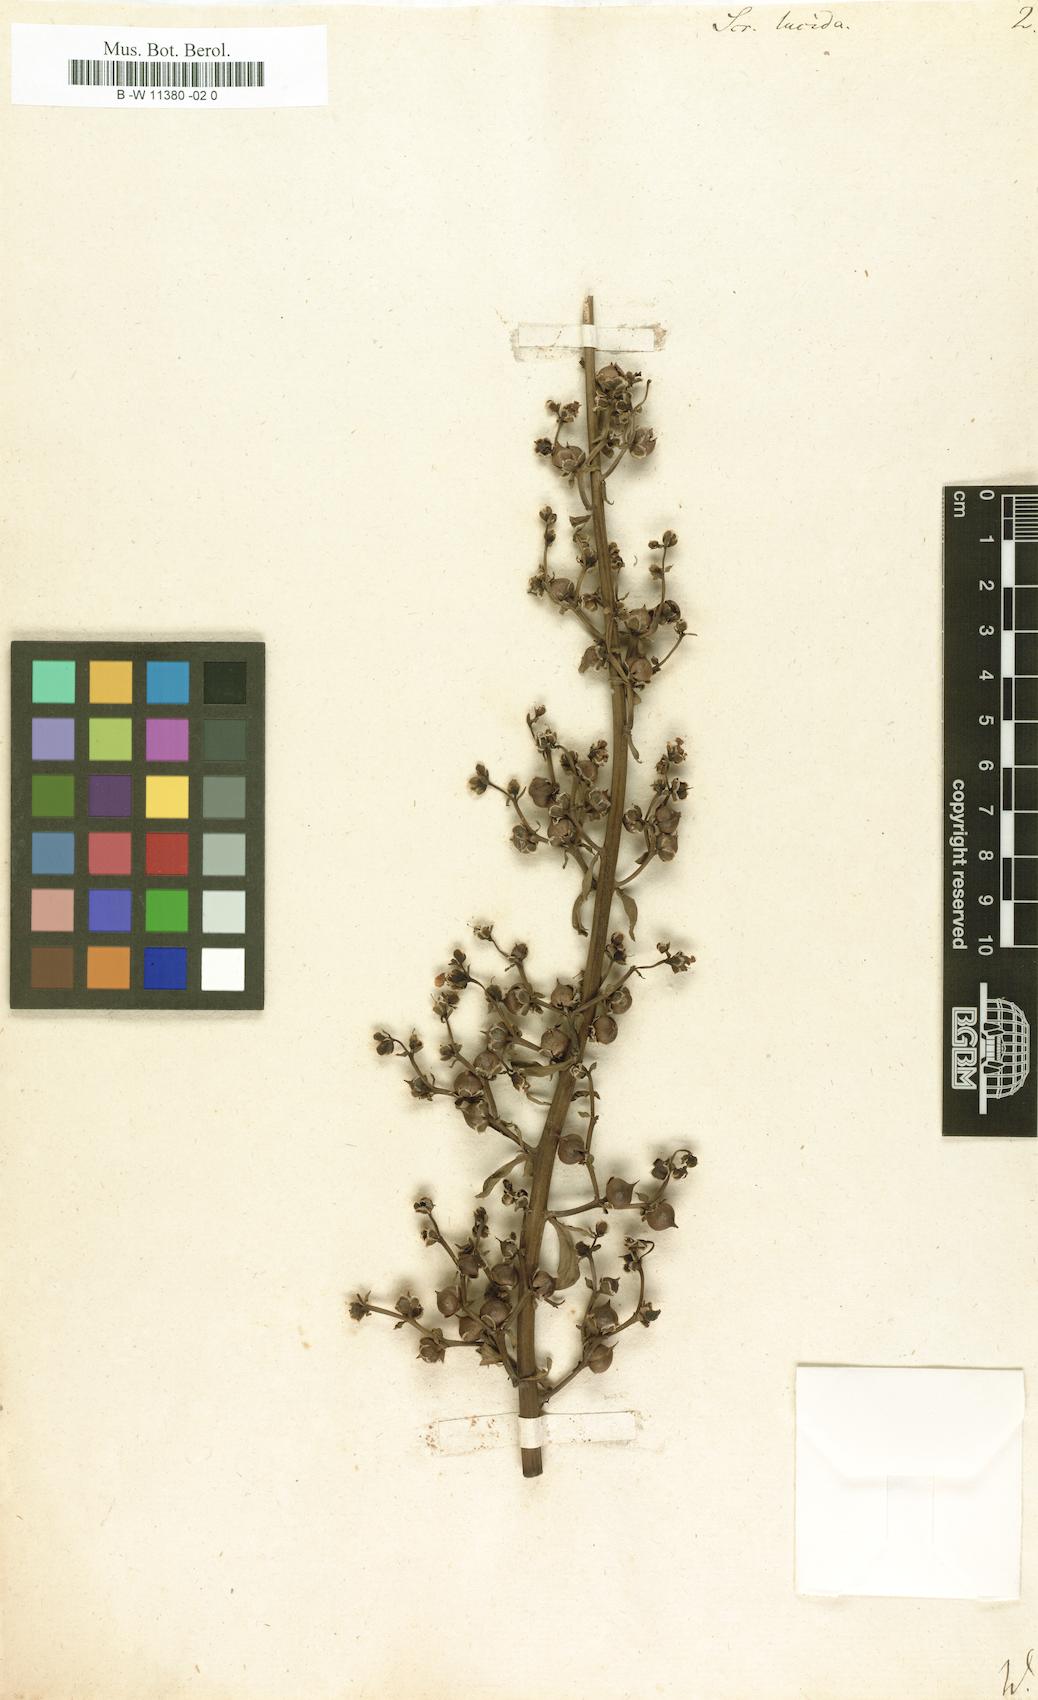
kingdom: Plantae
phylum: Tracheophyta
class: Magnoliopsida
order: Lamiales
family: Scrophulariaceae
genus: Scrophularia
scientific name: Scrophularia lucida
